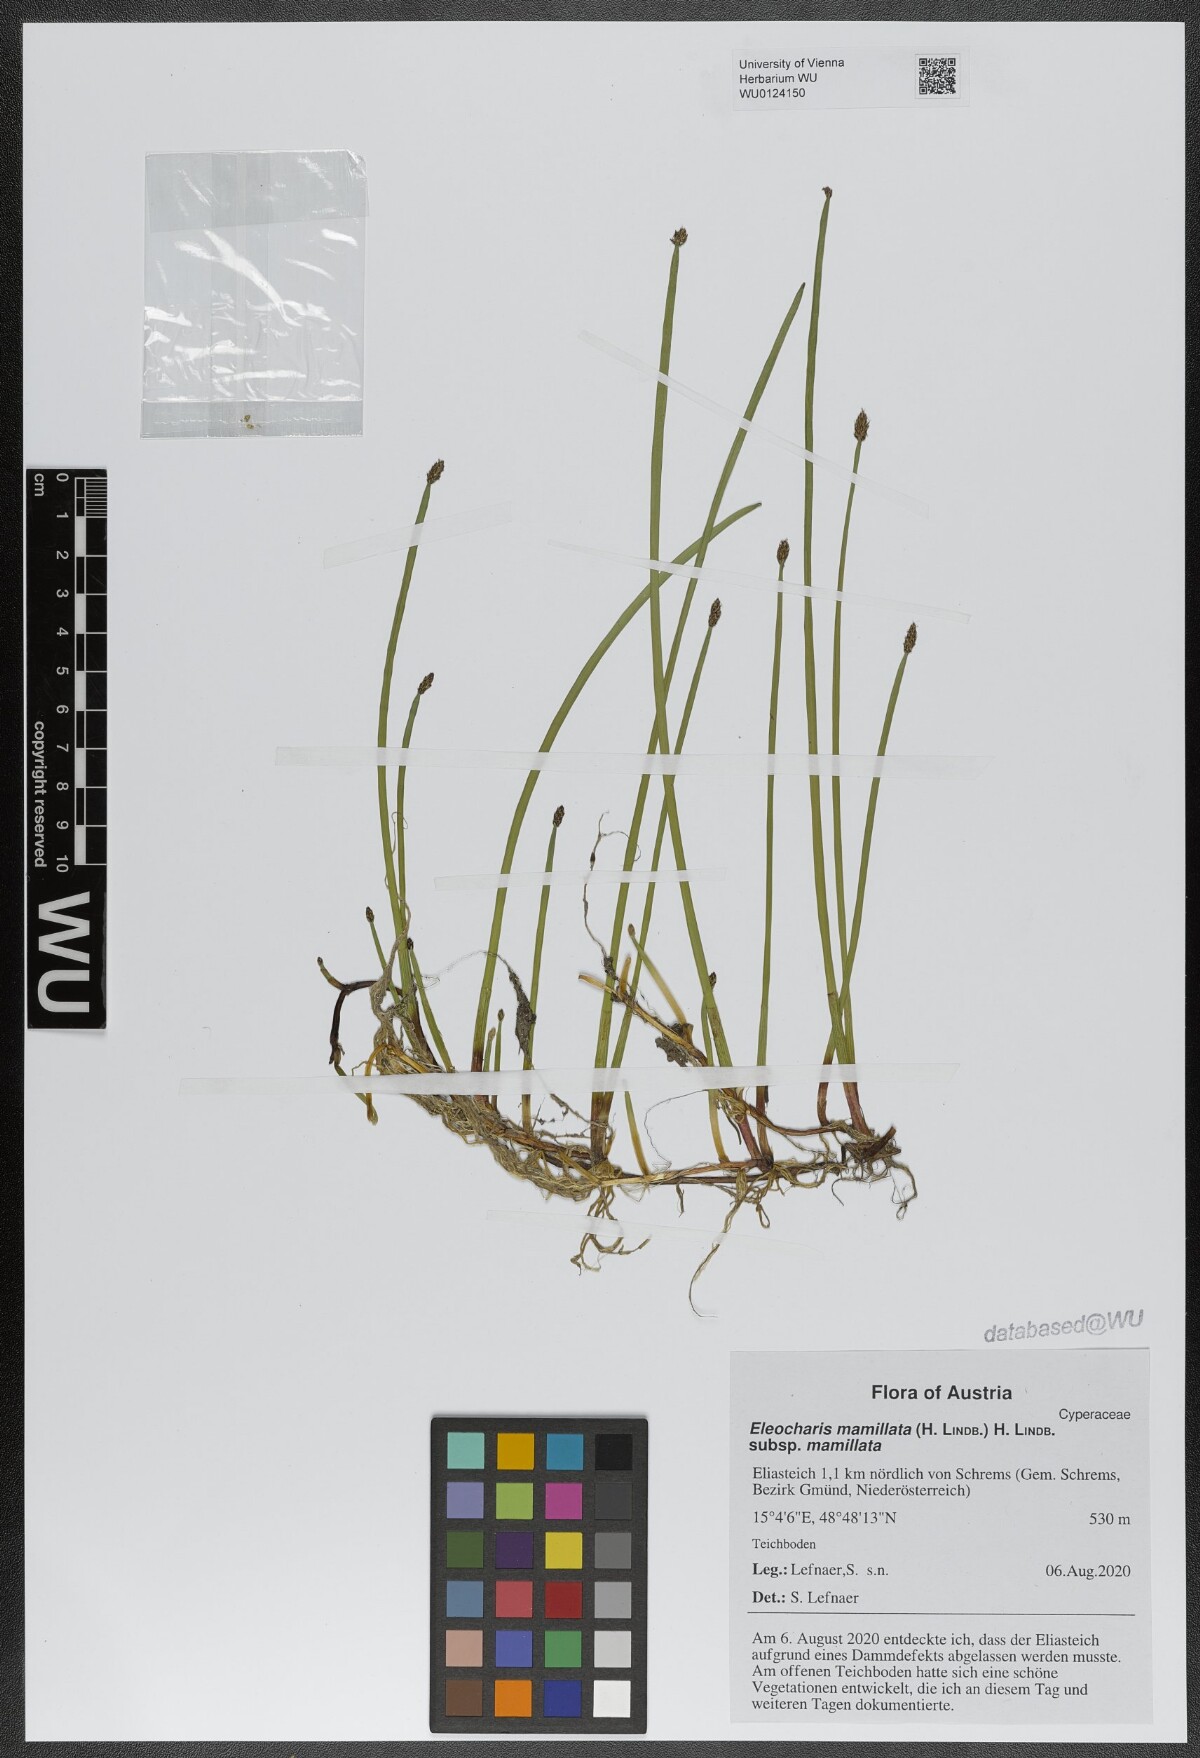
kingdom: Plantae
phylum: Tracheophyta
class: Liliopsida
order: Poales
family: Cyperaceae
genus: Eleocharis
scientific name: Eleocharis mamillata
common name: Northern spike-rush
